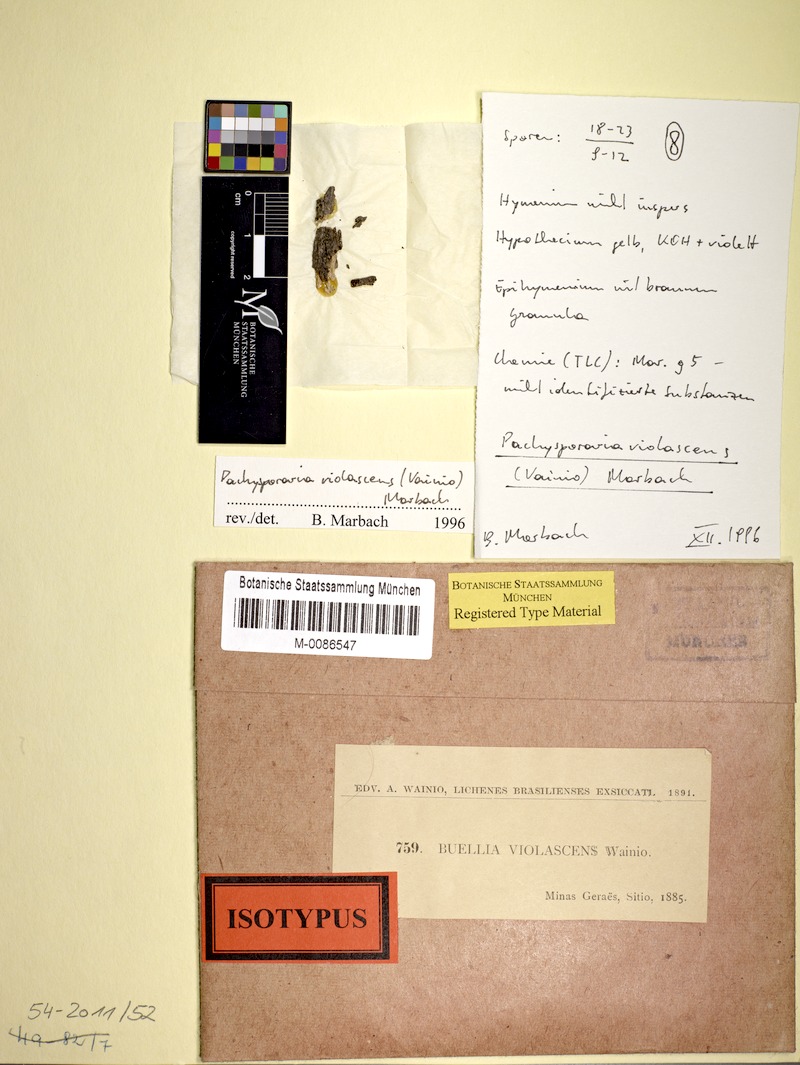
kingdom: Fungi
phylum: Ascomycota
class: Lecanoromycetes
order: Caliciales
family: Caliciaceae
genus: Buellia
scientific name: Buellia
